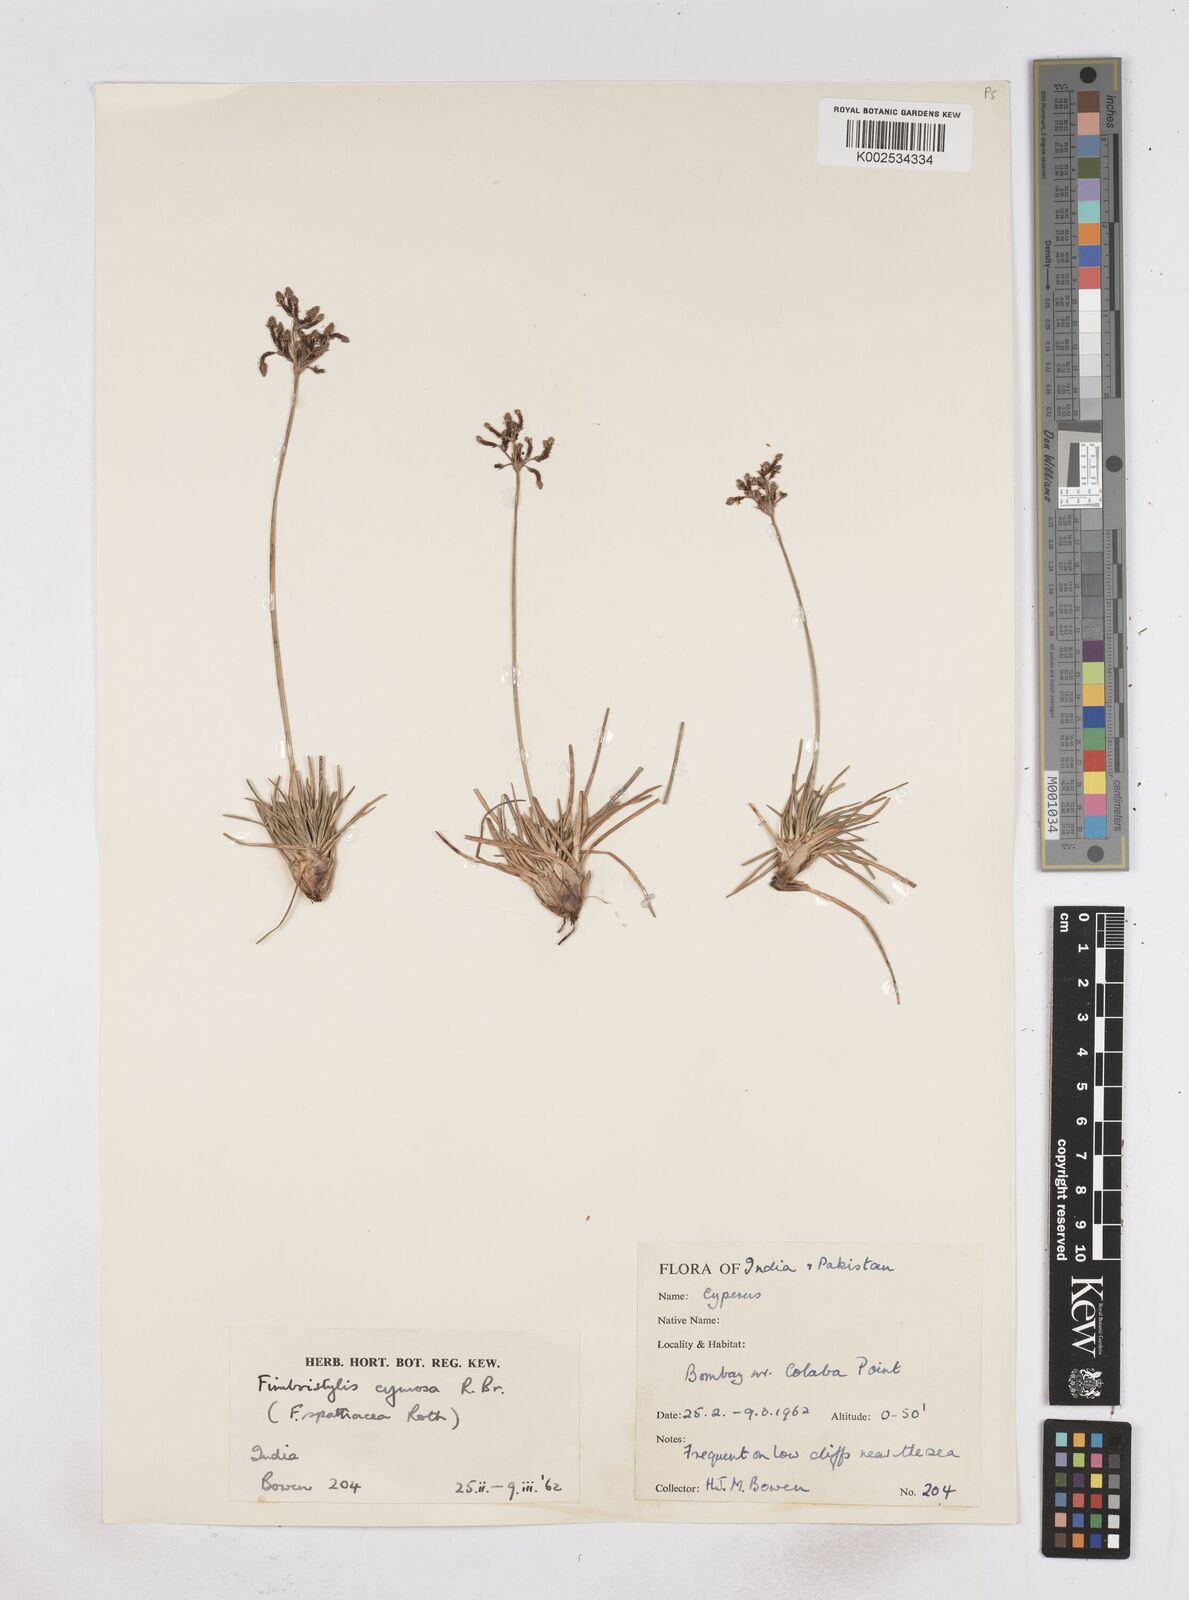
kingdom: Plantae
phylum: Tracheophyta
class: Liliopsida
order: Poales
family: Cyperaceae
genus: Fimbristylis
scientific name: Fimbristylis cymosa
